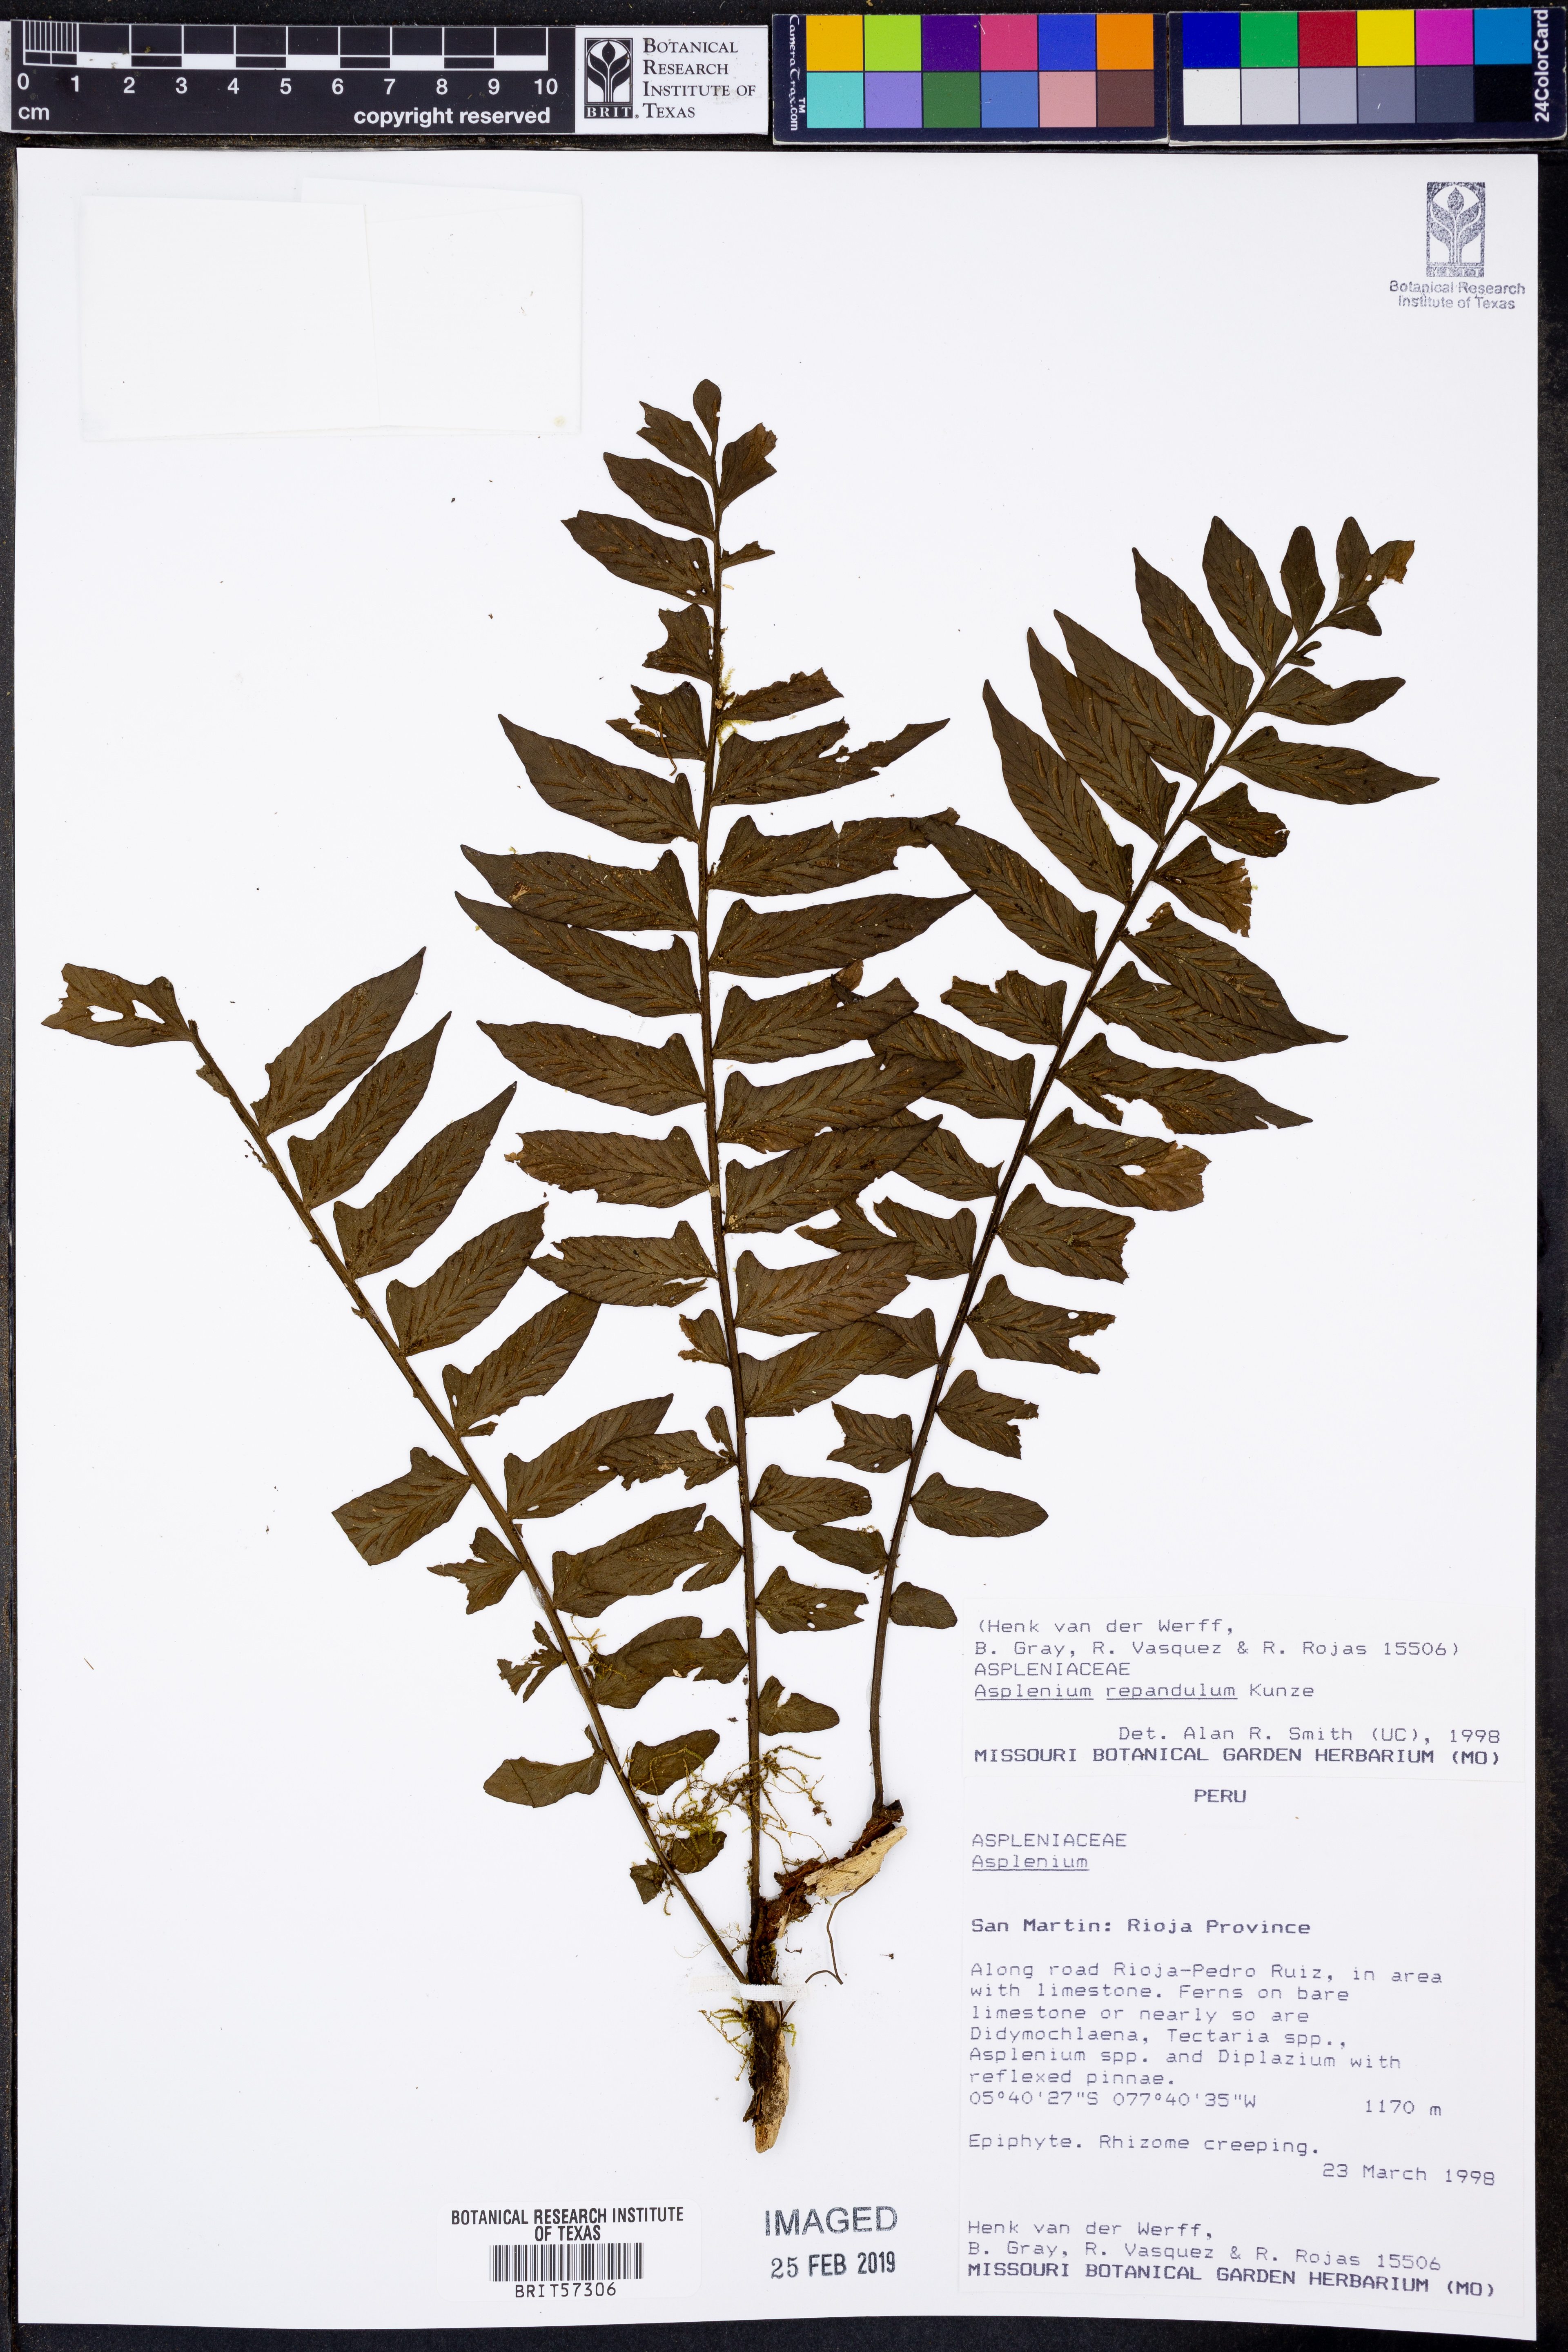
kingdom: Plantae
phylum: Tracheophyta
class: Polypodiopsida
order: Polypodiales
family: Aspleniaceae
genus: Hymenasplenium
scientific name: Hymenasplenium repandulum
